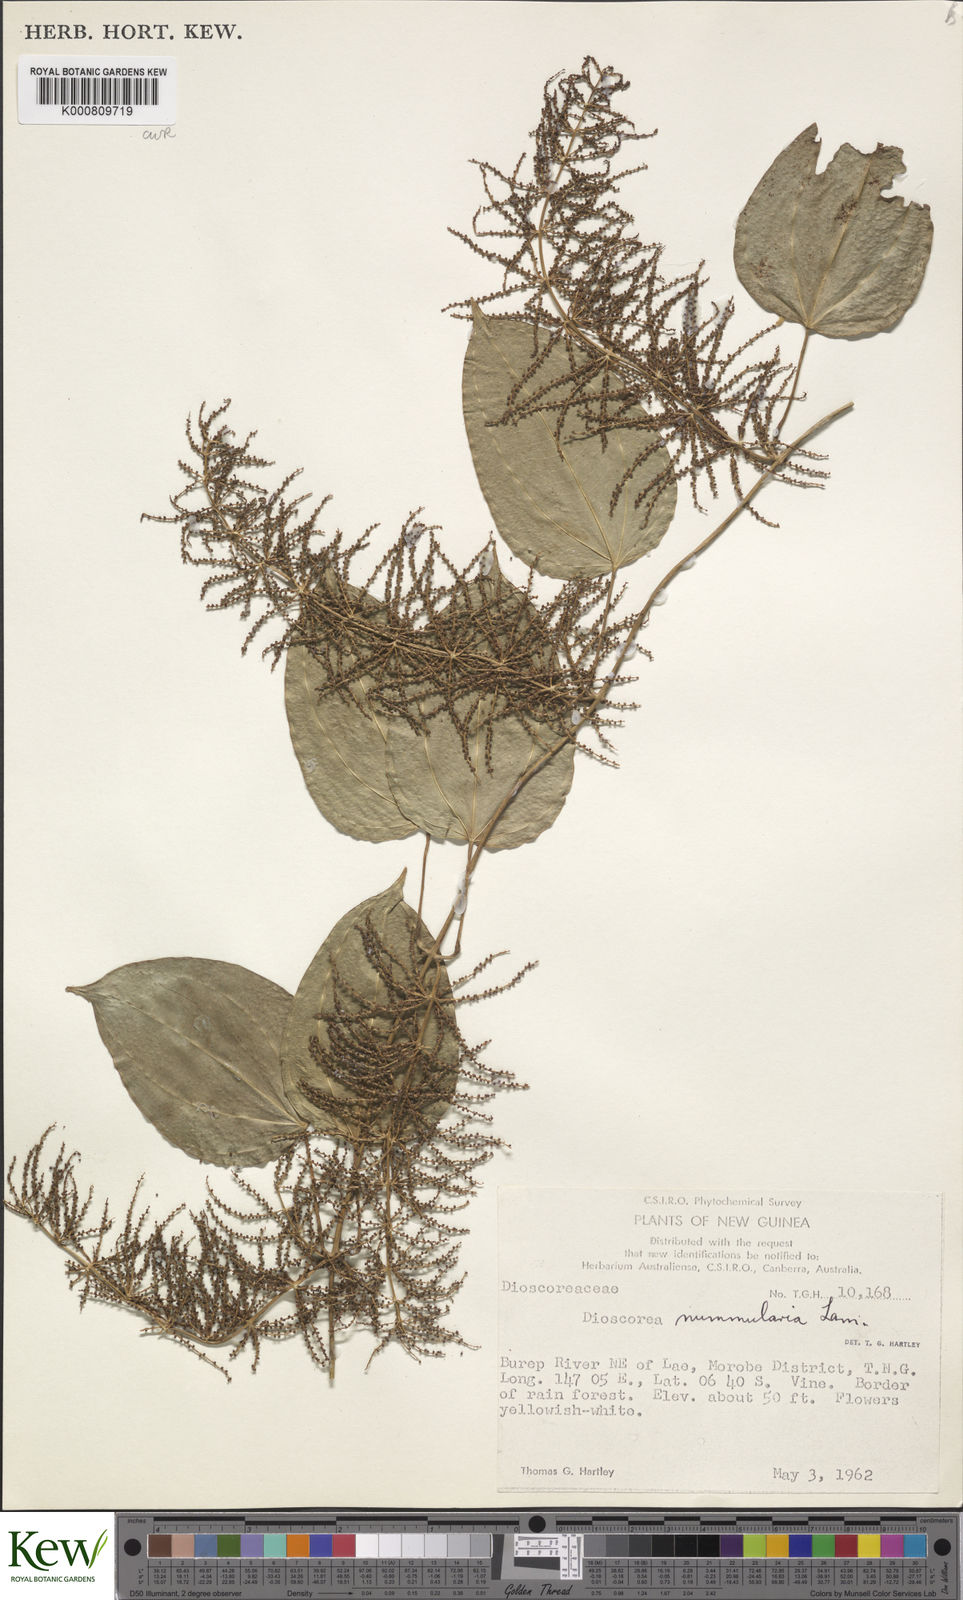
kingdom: Plantae
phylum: Tracheophyta
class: Liliopsida
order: Dioscoreales
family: Dioscoreaceae
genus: Dioscorea
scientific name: Dioscorea nummularia
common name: Pacific yam
